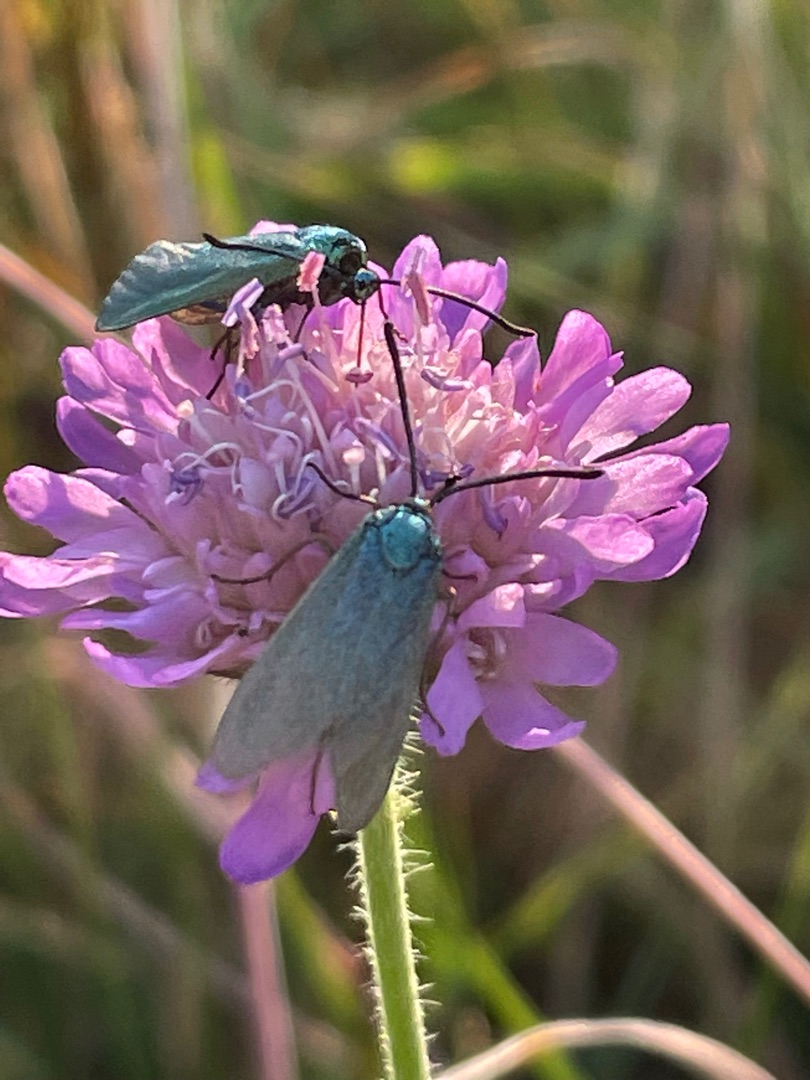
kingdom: Animalia
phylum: Arthropoda
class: Insecta
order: Lepidoptera
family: Zygaenidae
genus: Adscita
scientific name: Adscita statices
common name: Metalvinge
